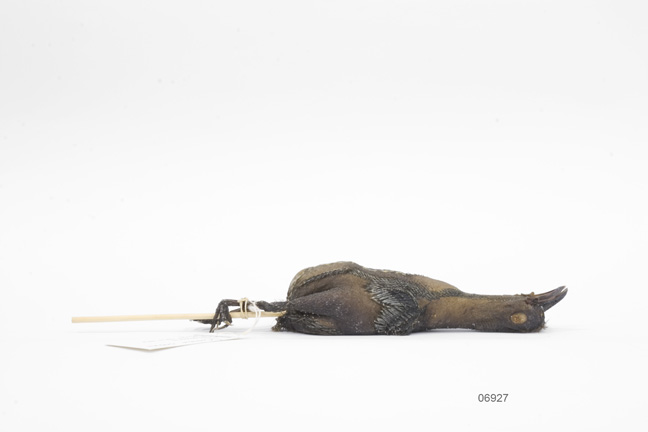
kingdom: Animalia
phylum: Chordata
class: Aves
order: Passeriformes
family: Callaeatidae
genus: Callaeas
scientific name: Callaeas cinereus
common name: South island kokako
